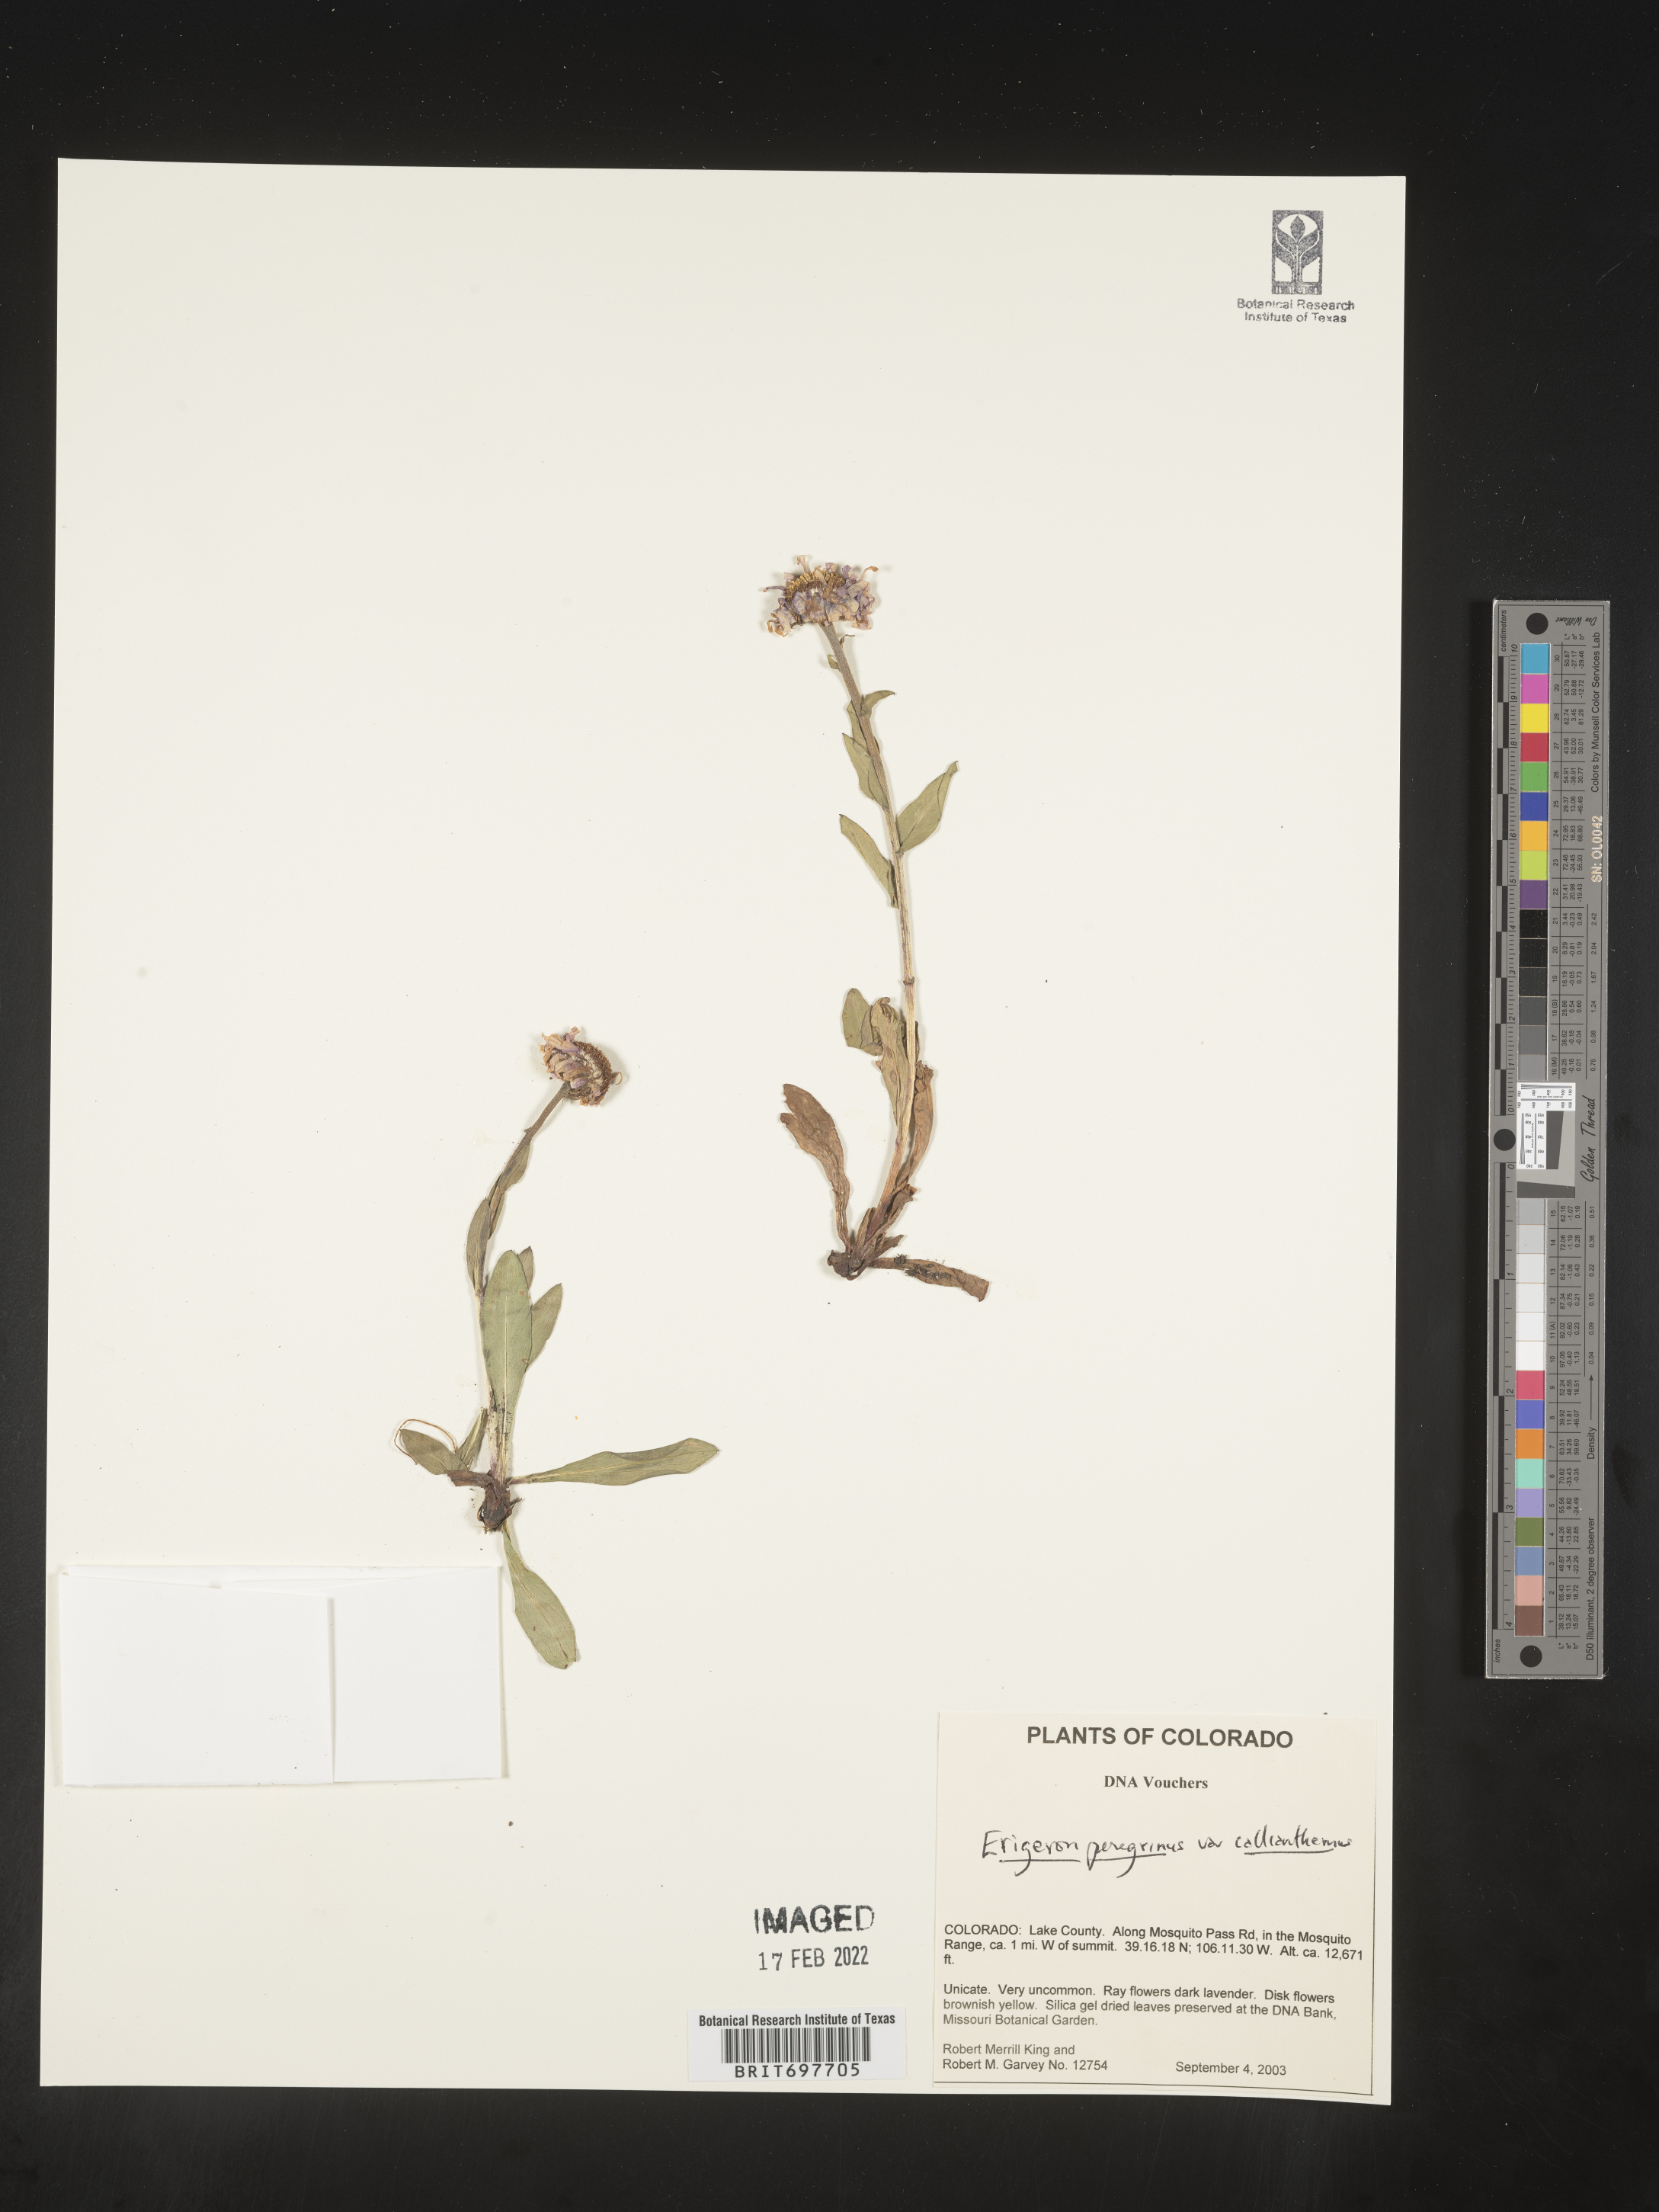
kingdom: Plantae
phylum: Tracheophyta
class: Magnoliopsida
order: Asterales
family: Asteraceae
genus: Erigeron
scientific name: Erigeron glacialis
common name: Subalpine fleabane
